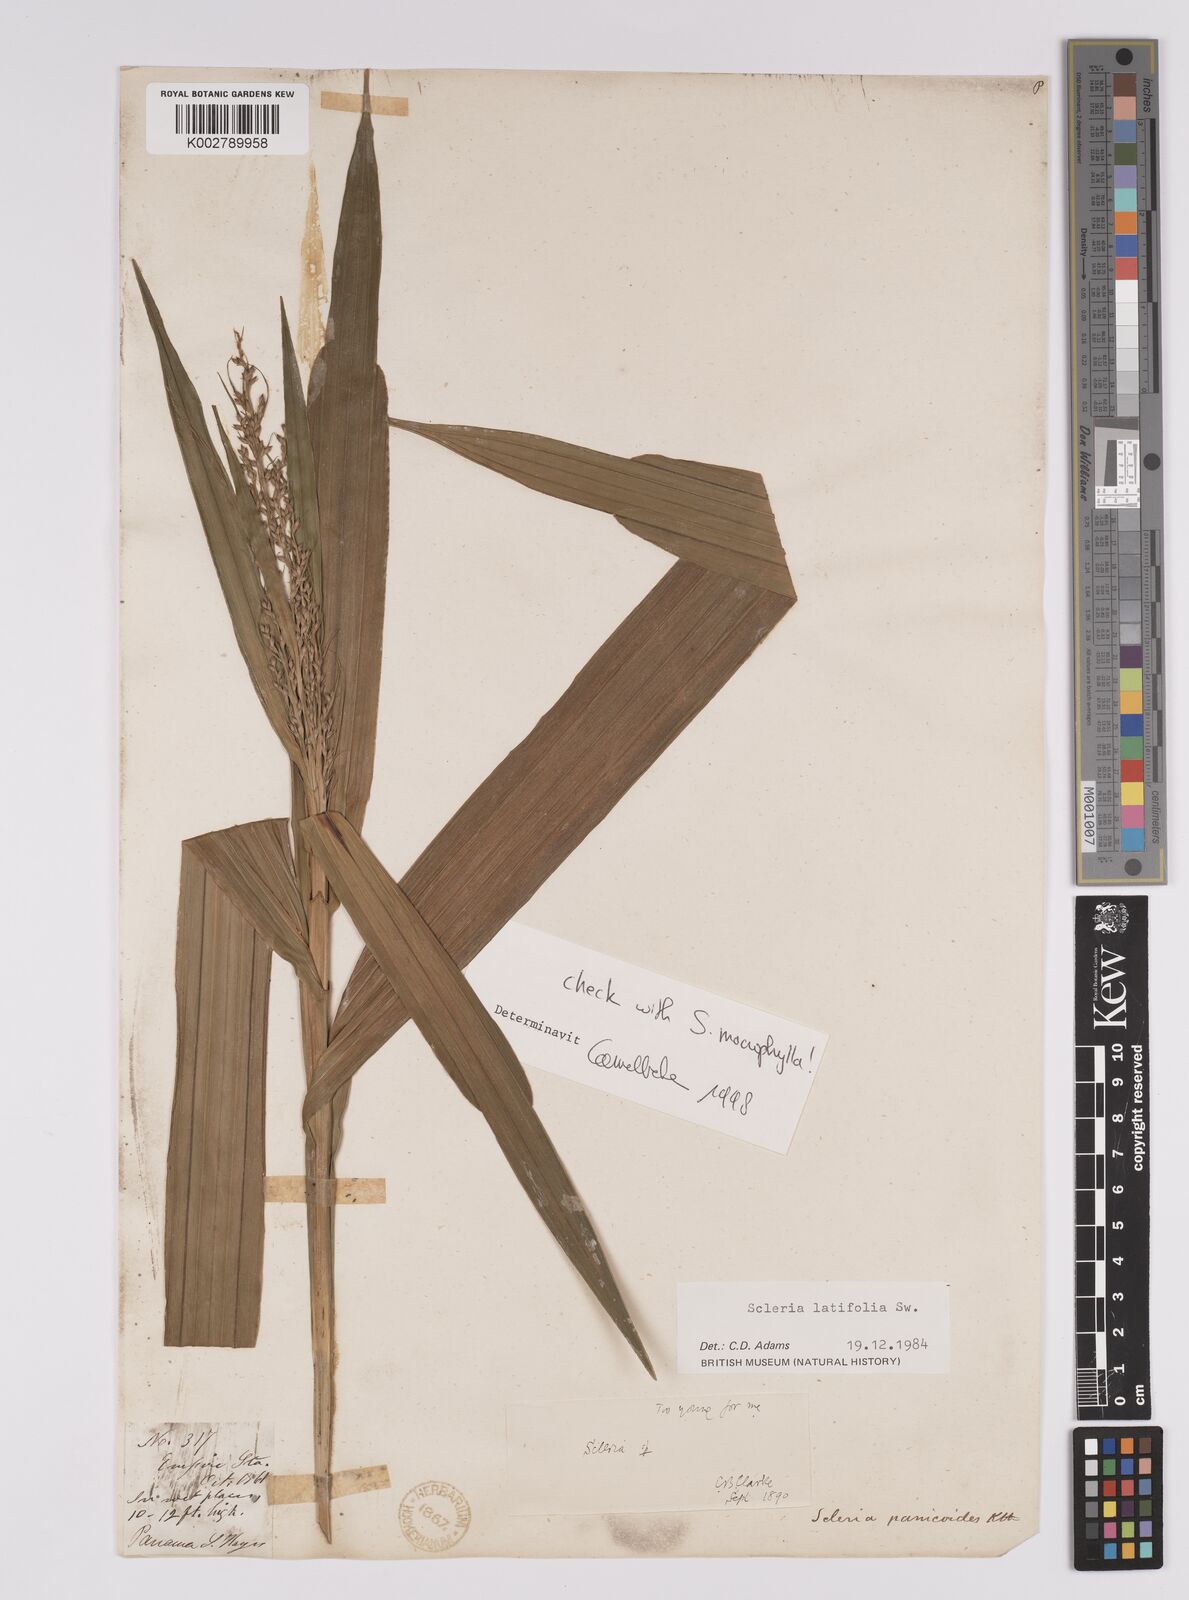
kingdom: Plantae
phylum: Tracheophyta
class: Liliopsida
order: Poales
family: Cyperaceae
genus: Scleria
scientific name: Scleria latifolia
